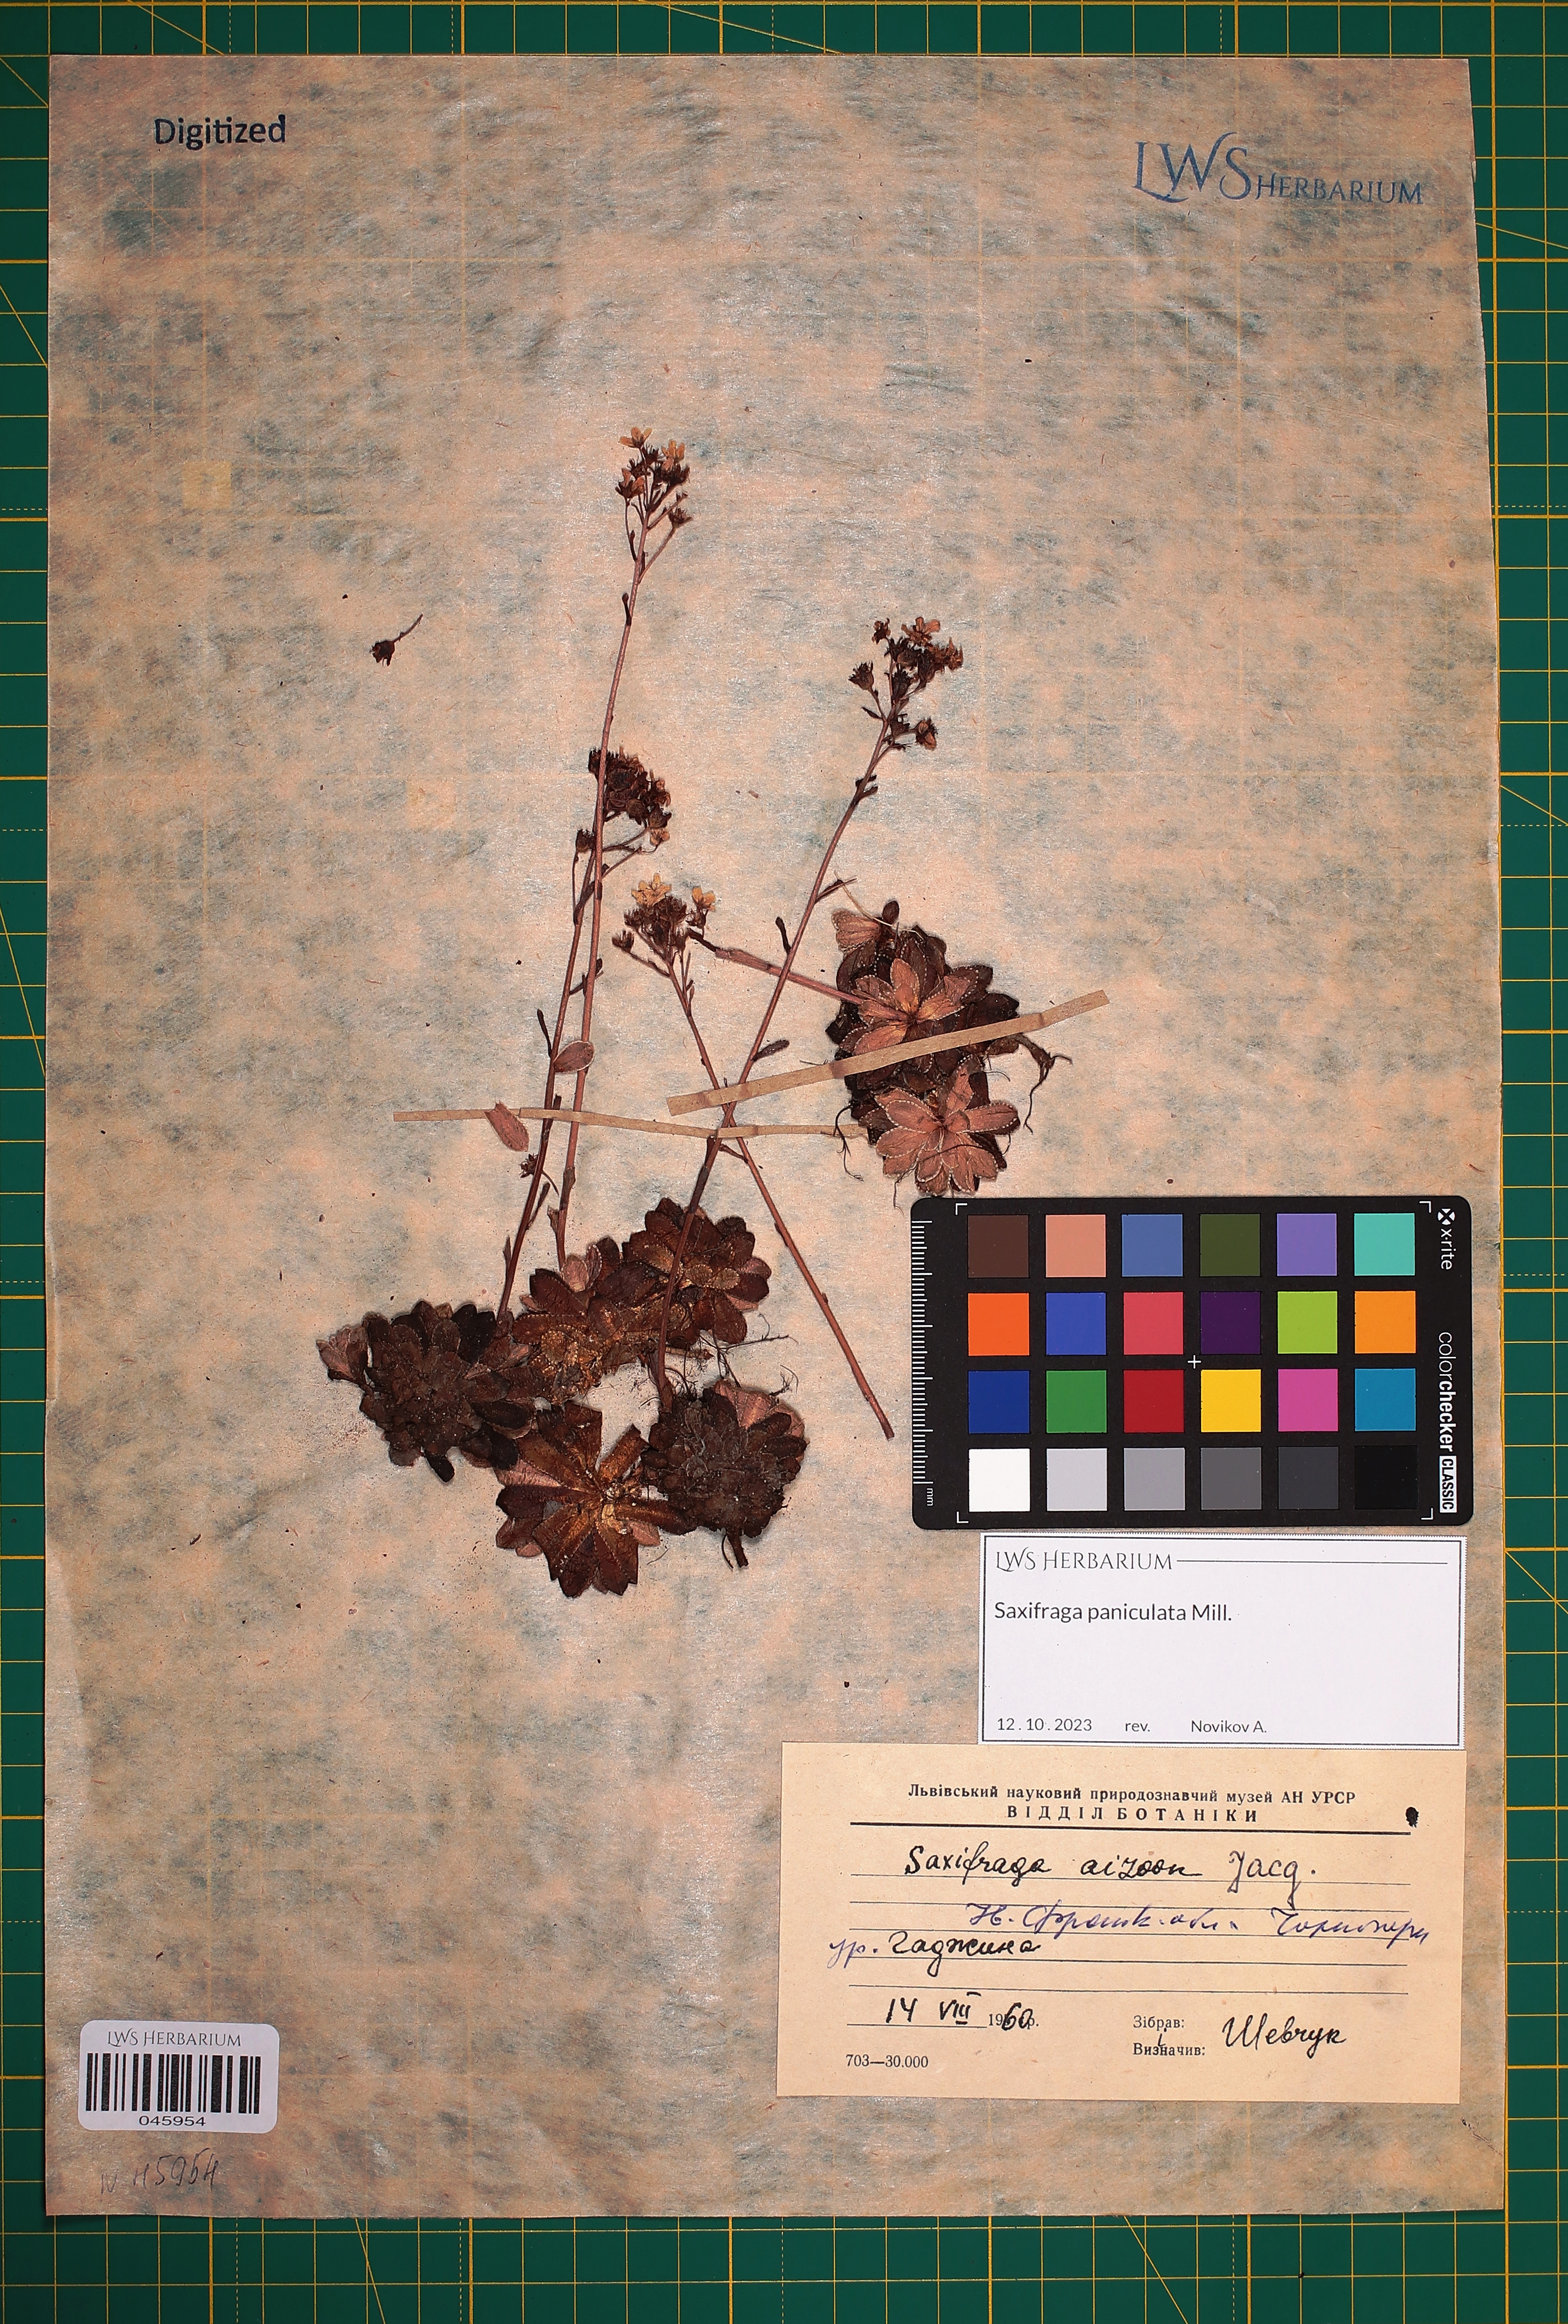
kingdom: Plantae
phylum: Tracheophyta
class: Magnoliopsida
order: Saxifragales
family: Saxifragaceae
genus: Saxifraga
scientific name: Saxifraga paniculata
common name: Livelong saxifrage
